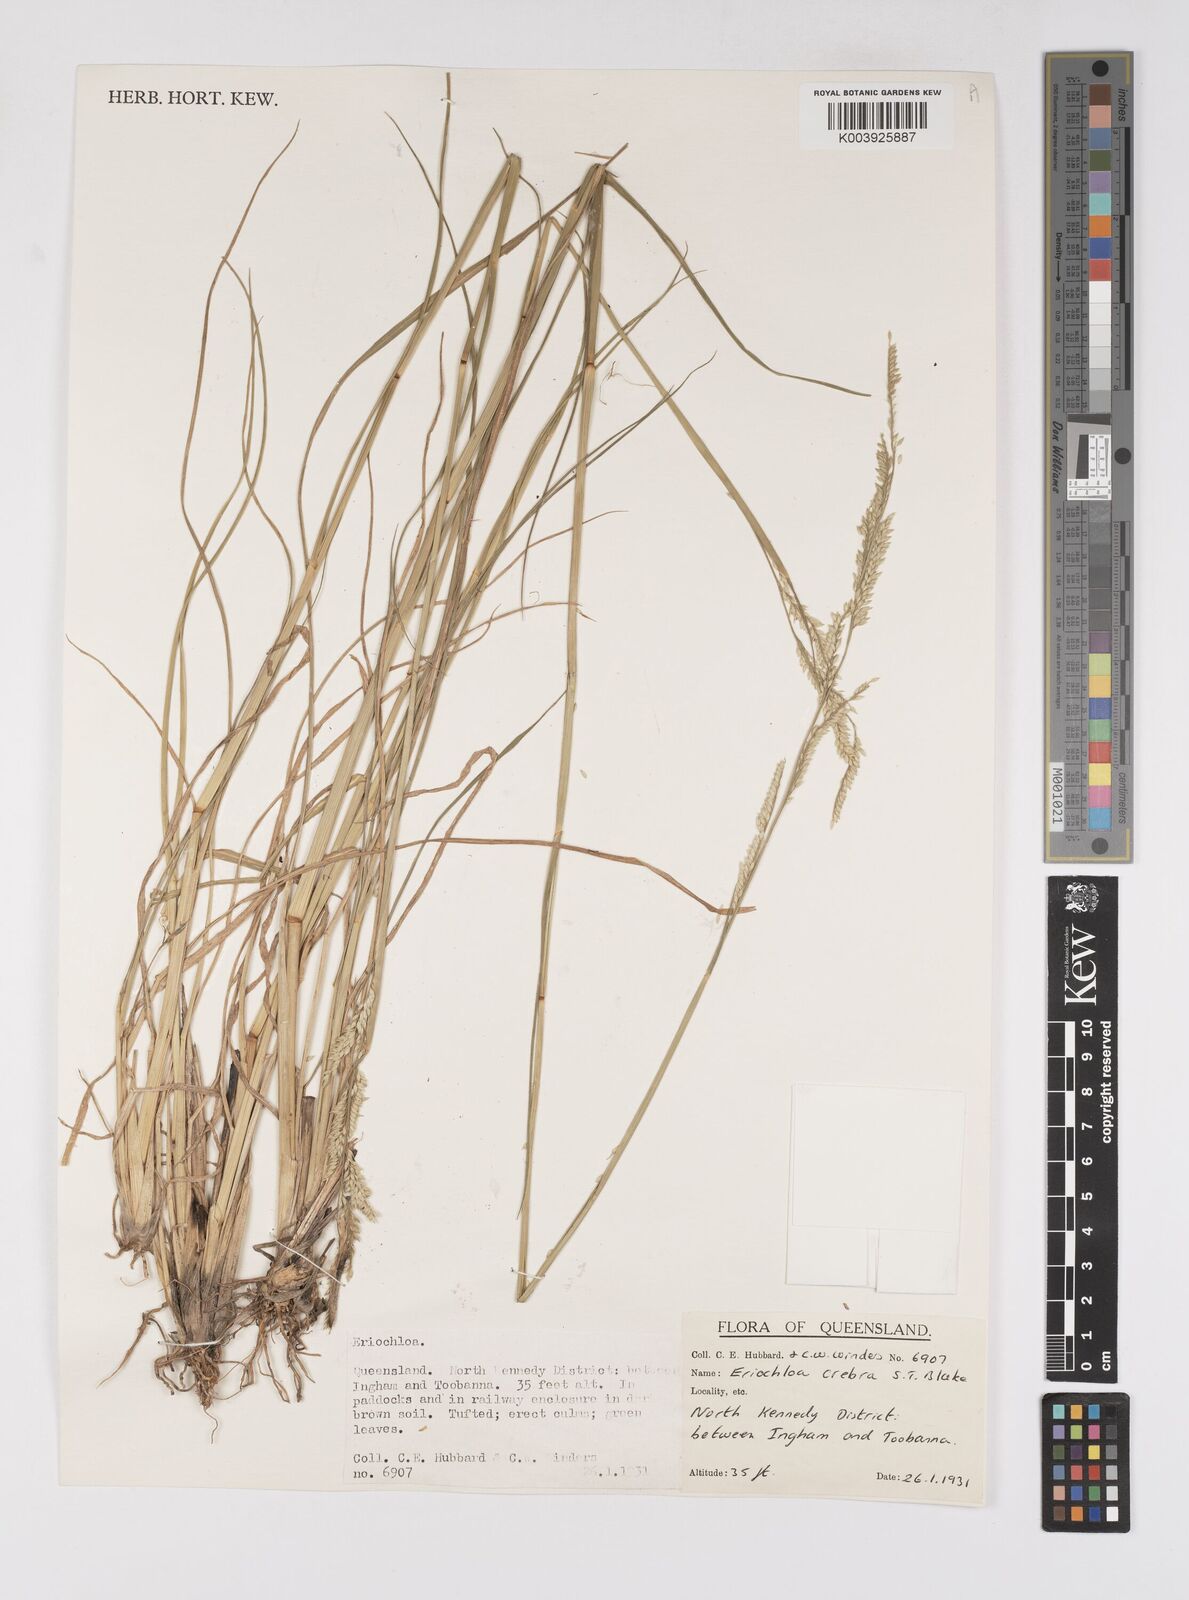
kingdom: Plantae
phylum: Tracheophyta
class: Liliopsida
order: Poales
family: Poaceae
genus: Eriochloa
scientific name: Eriochloa crebra
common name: Cup grass
